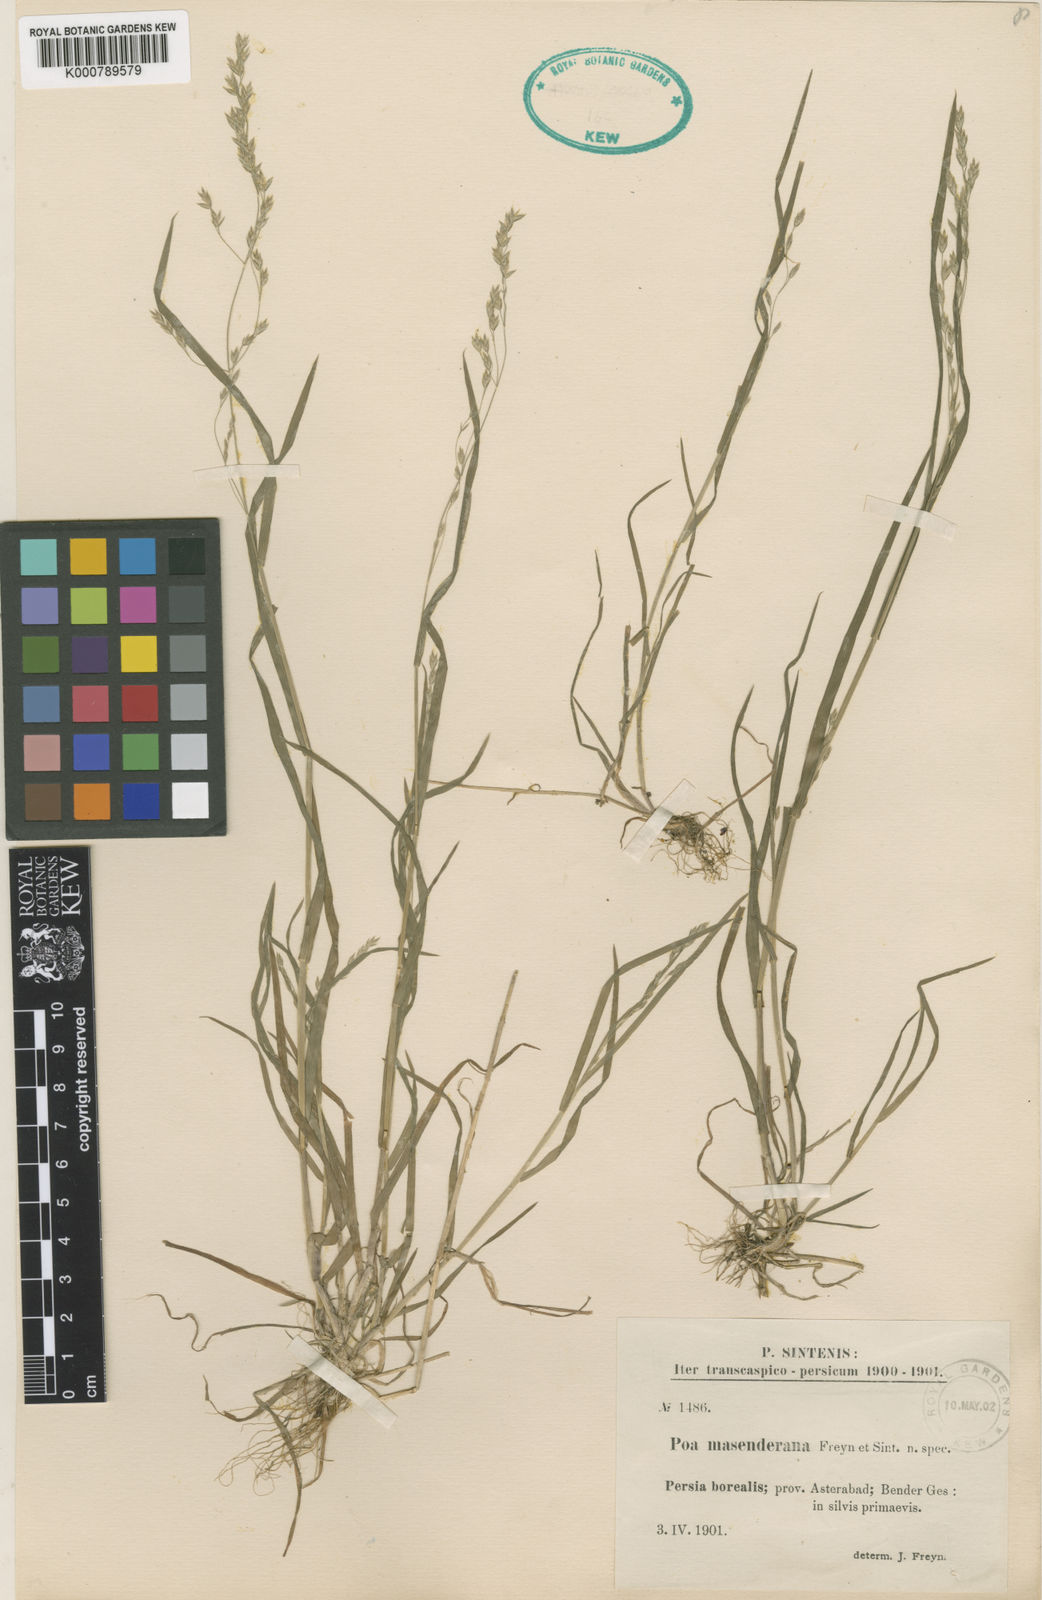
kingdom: Plantae
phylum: Tracheophyta
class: Liliopsida
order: Poales
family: Poaceae
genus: Poa
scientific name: Poa masenderana
